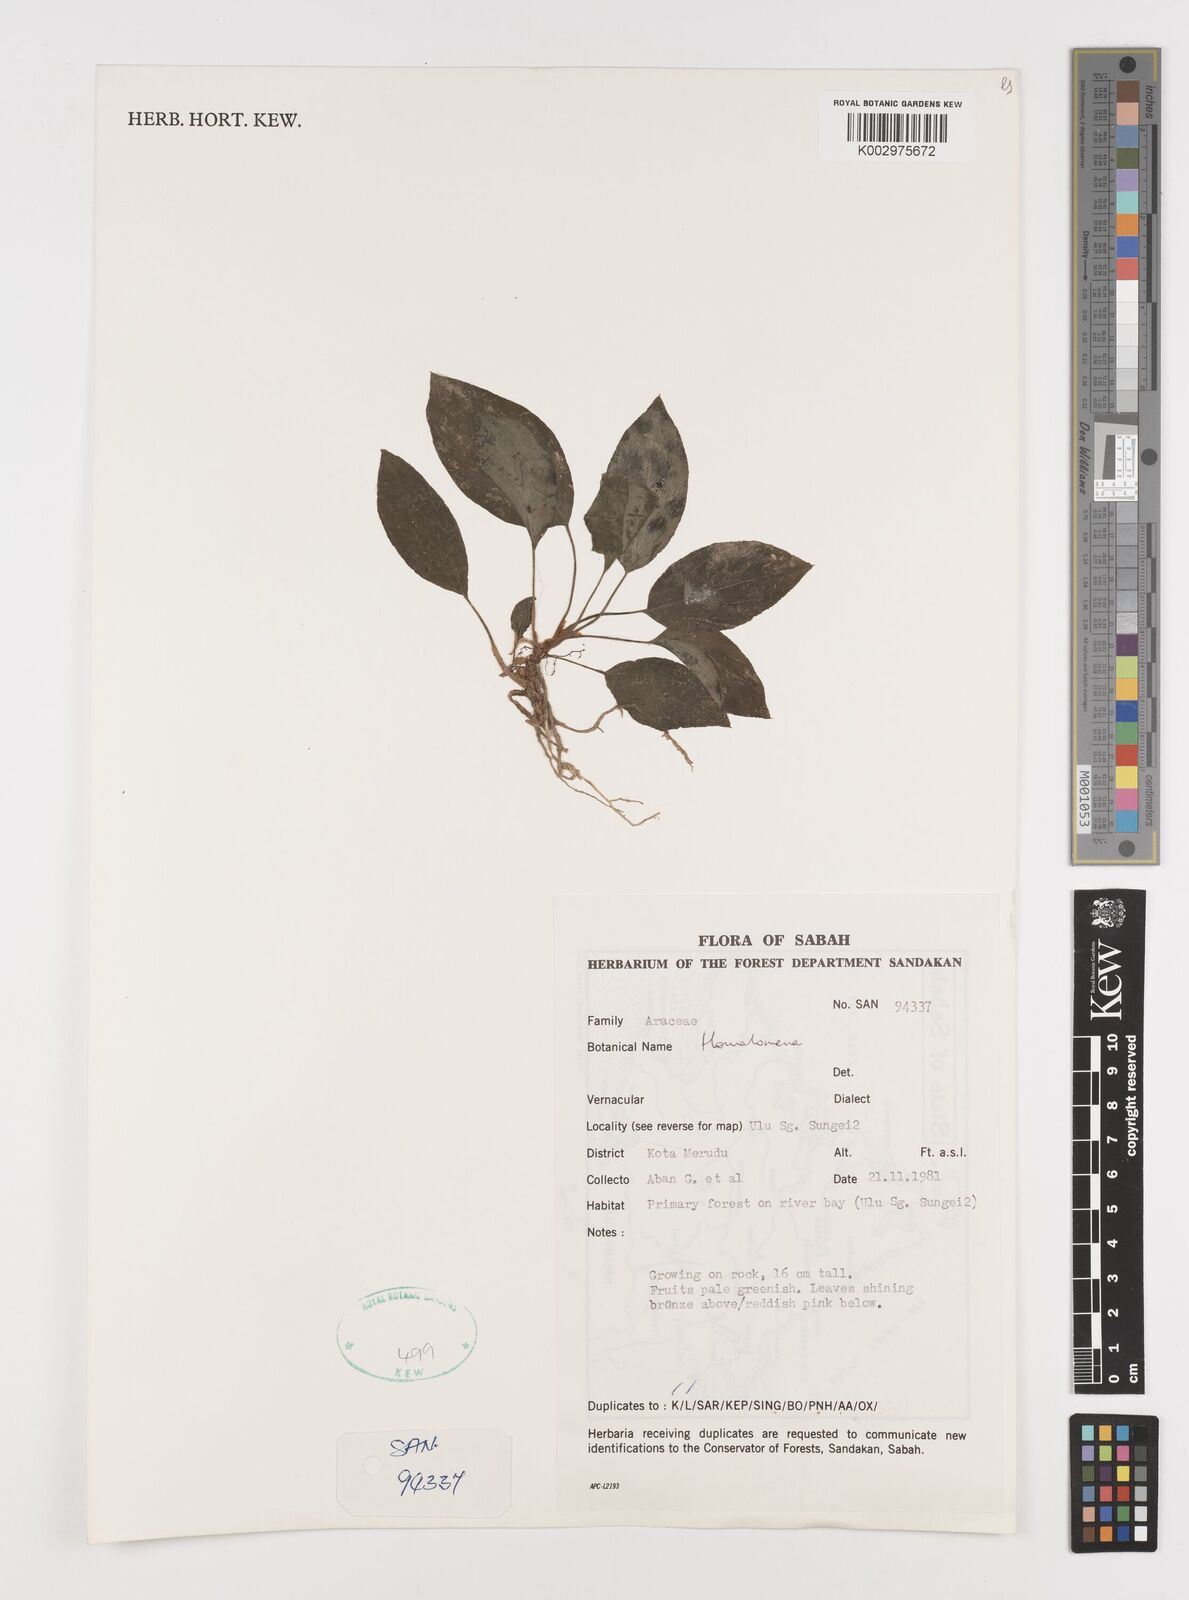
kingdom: Plantae
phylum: Tracheophyta
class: Liliopsida
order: Alismatales
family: Araceae
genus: Homalomena
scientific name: Homalomena
